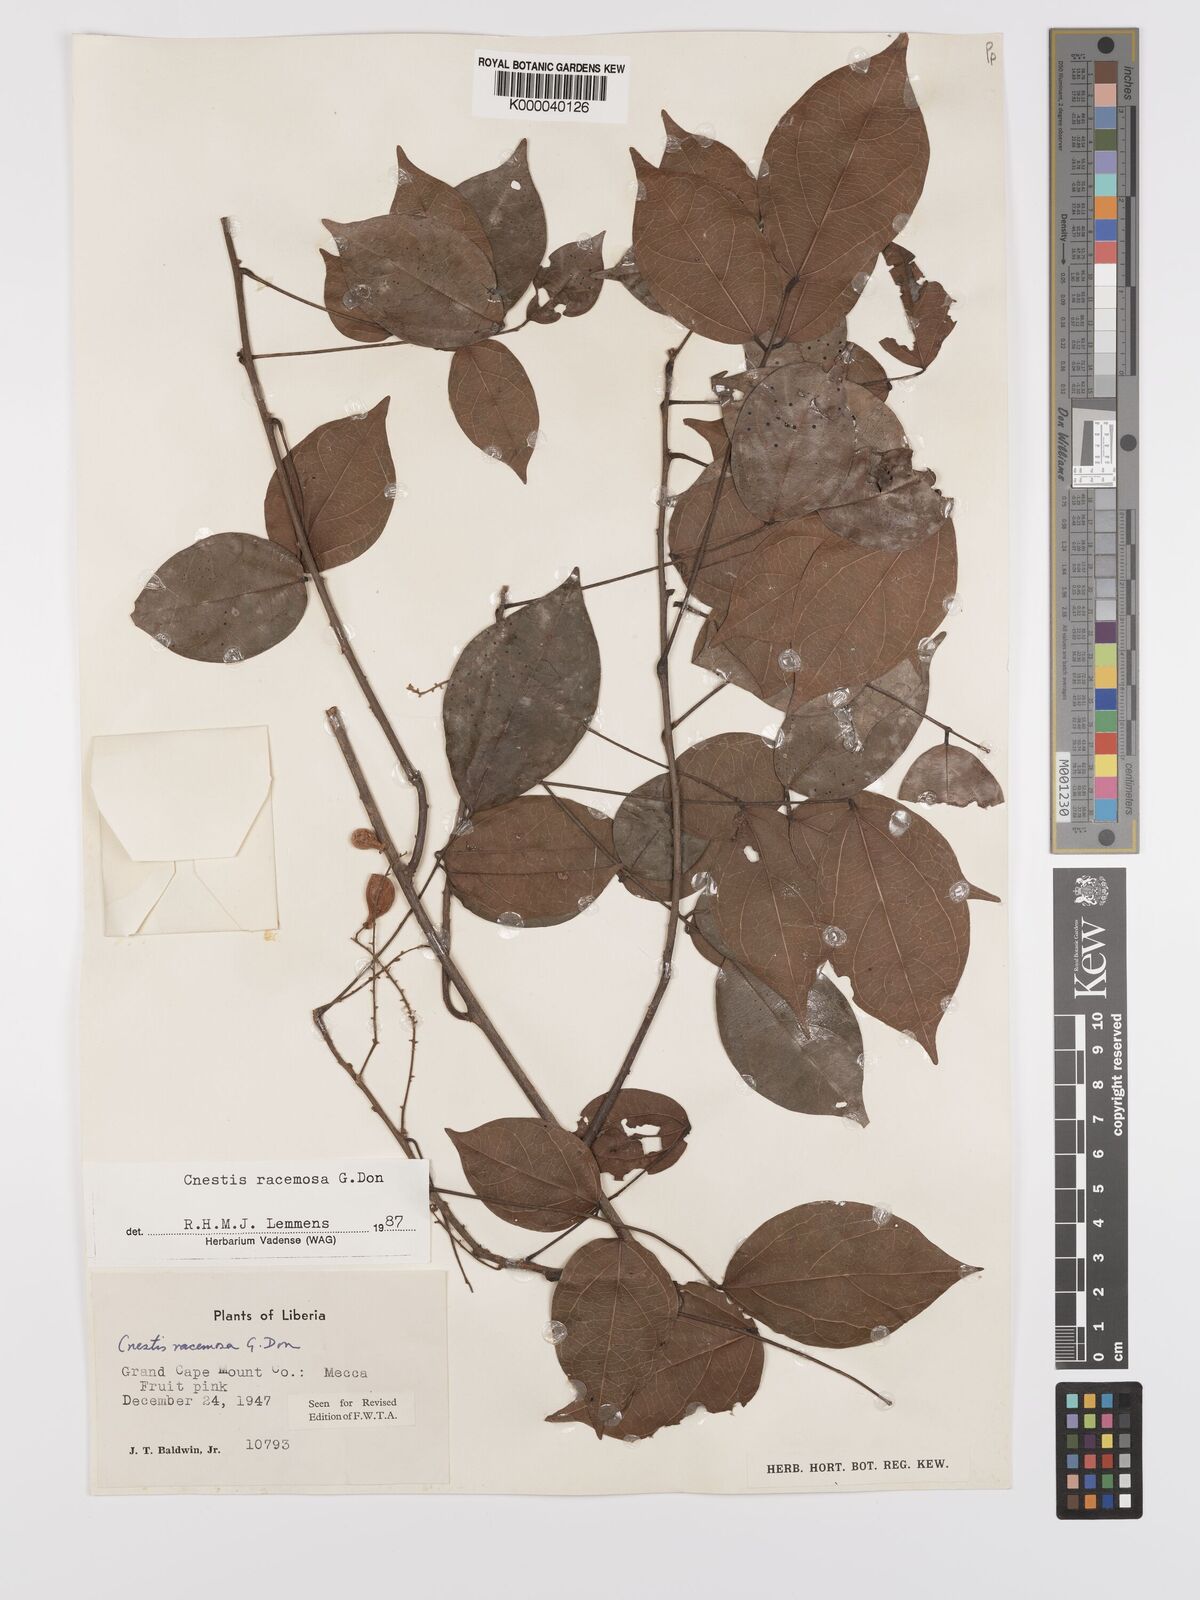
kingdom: Plantae
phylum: Tracheophyta
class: Magnoliopsida
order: Oxalidales
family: Connaraceae
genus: Cnestis
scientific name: Cnestis racemosa
